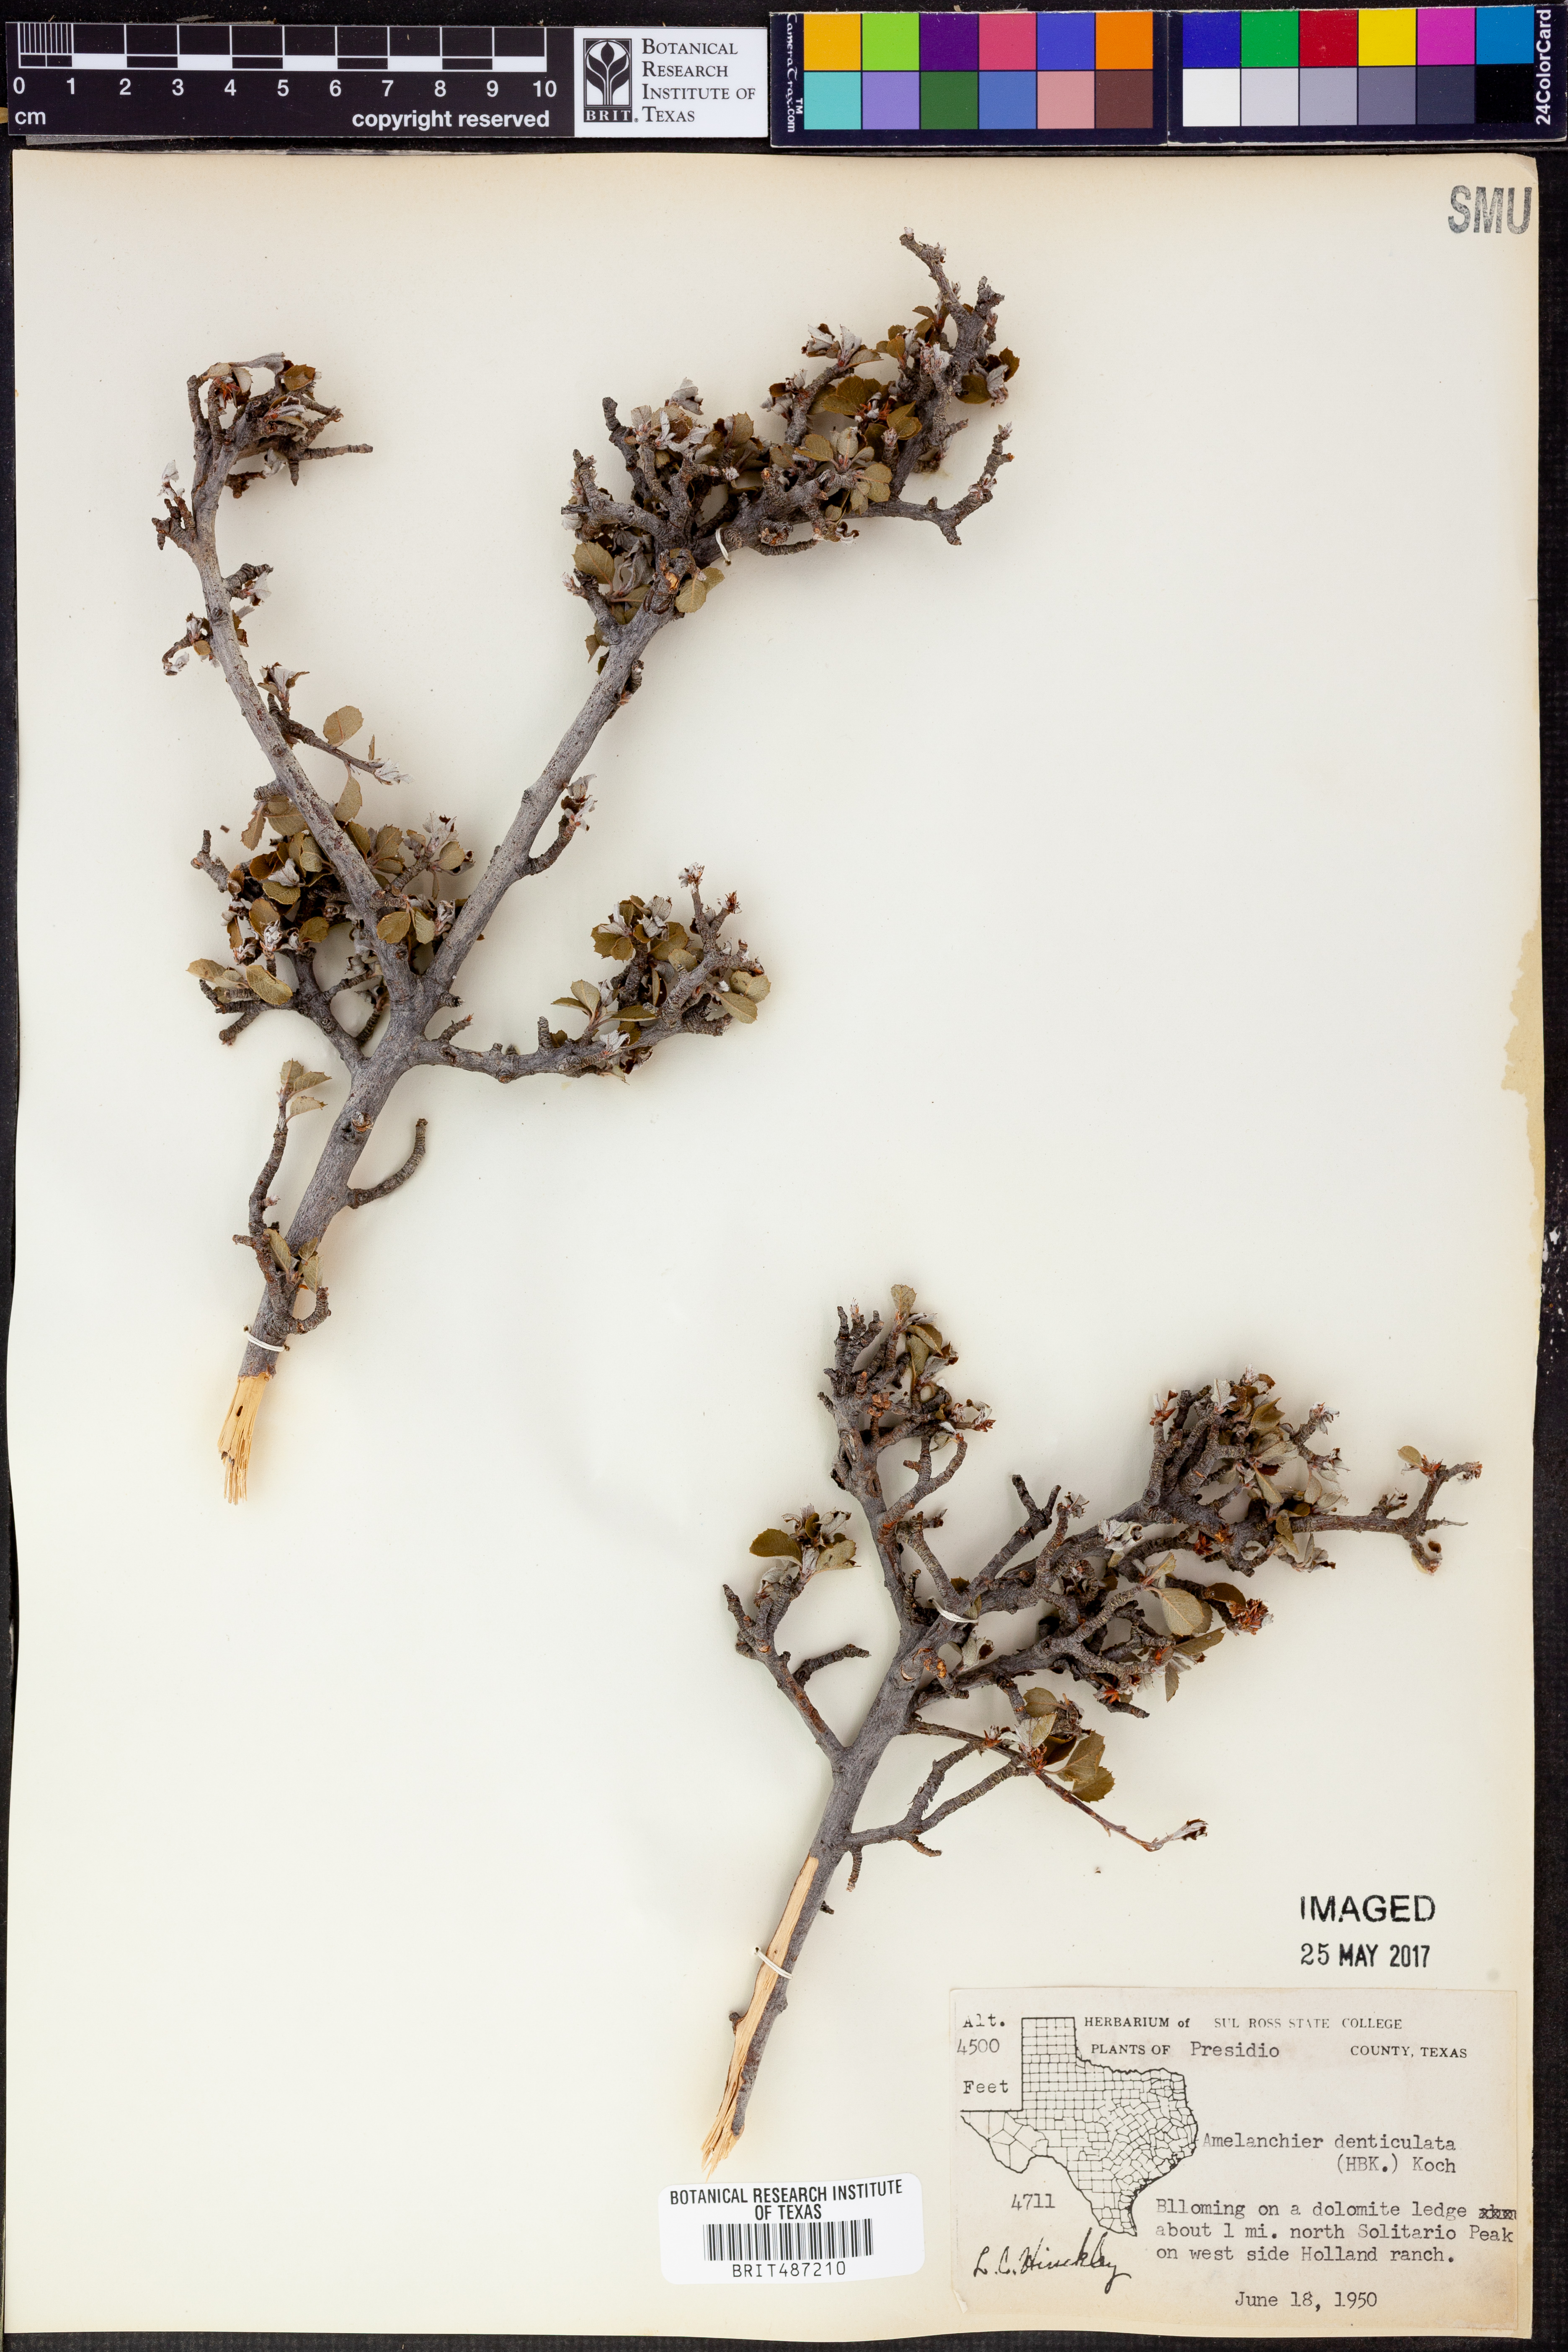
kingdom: Plantae
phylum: Tracheophyta
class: Magnoliopsida
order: Rosales
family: Rosaceae
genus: Malacomeles
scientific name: Malacomeles denticulata
